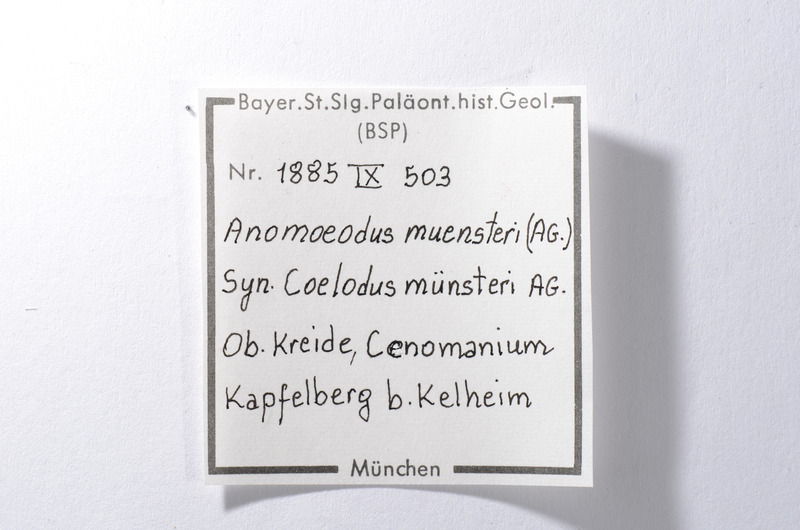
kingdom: Animalia
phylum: Chordata
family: Pycnodontidae
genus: Anomoeodus
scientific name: Anomoeodus
